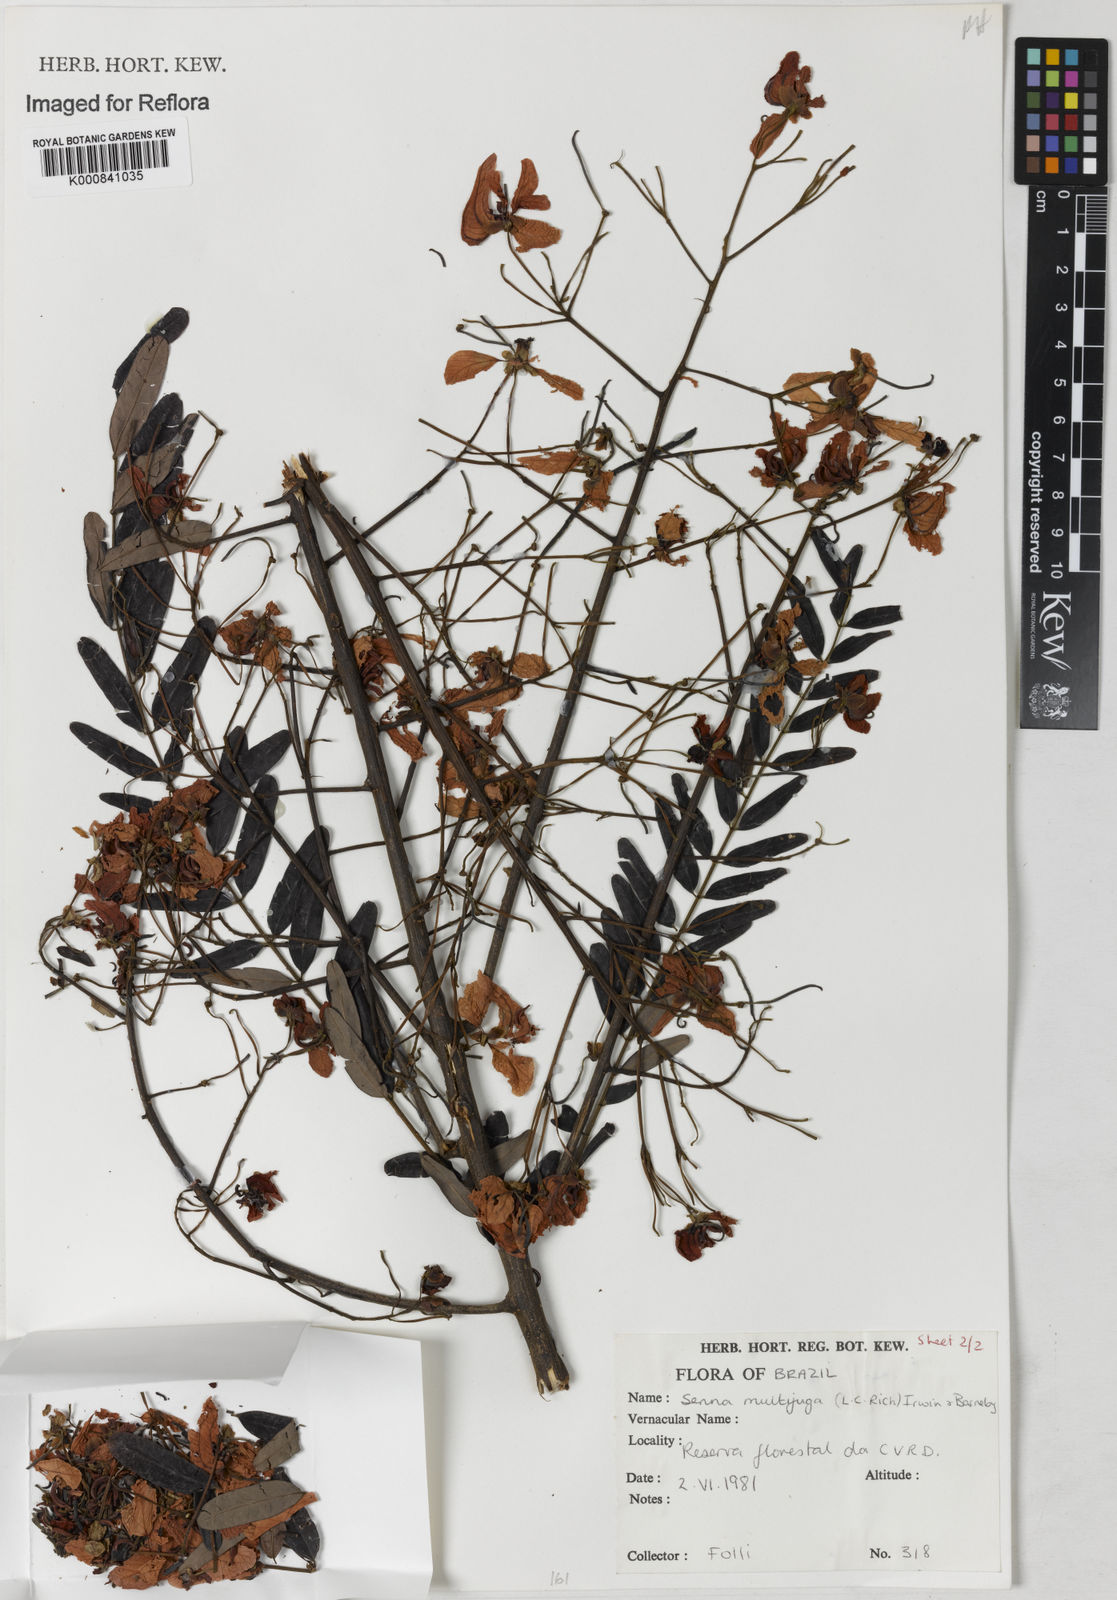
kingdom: Plantae
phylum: Tracheophyta
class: Magnoliopsida
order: Fabales
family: Fabaceae
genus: Senna
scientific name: Senna multijuga
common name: False sicklepod
